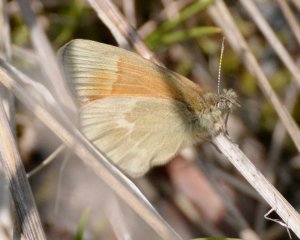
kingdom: Animalia
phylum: Arthropoda
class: Insecta
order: Lepidoptera
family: Nymphalidae
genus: Coenonympha
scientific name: Coenonympha tullia
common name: Large Heath
